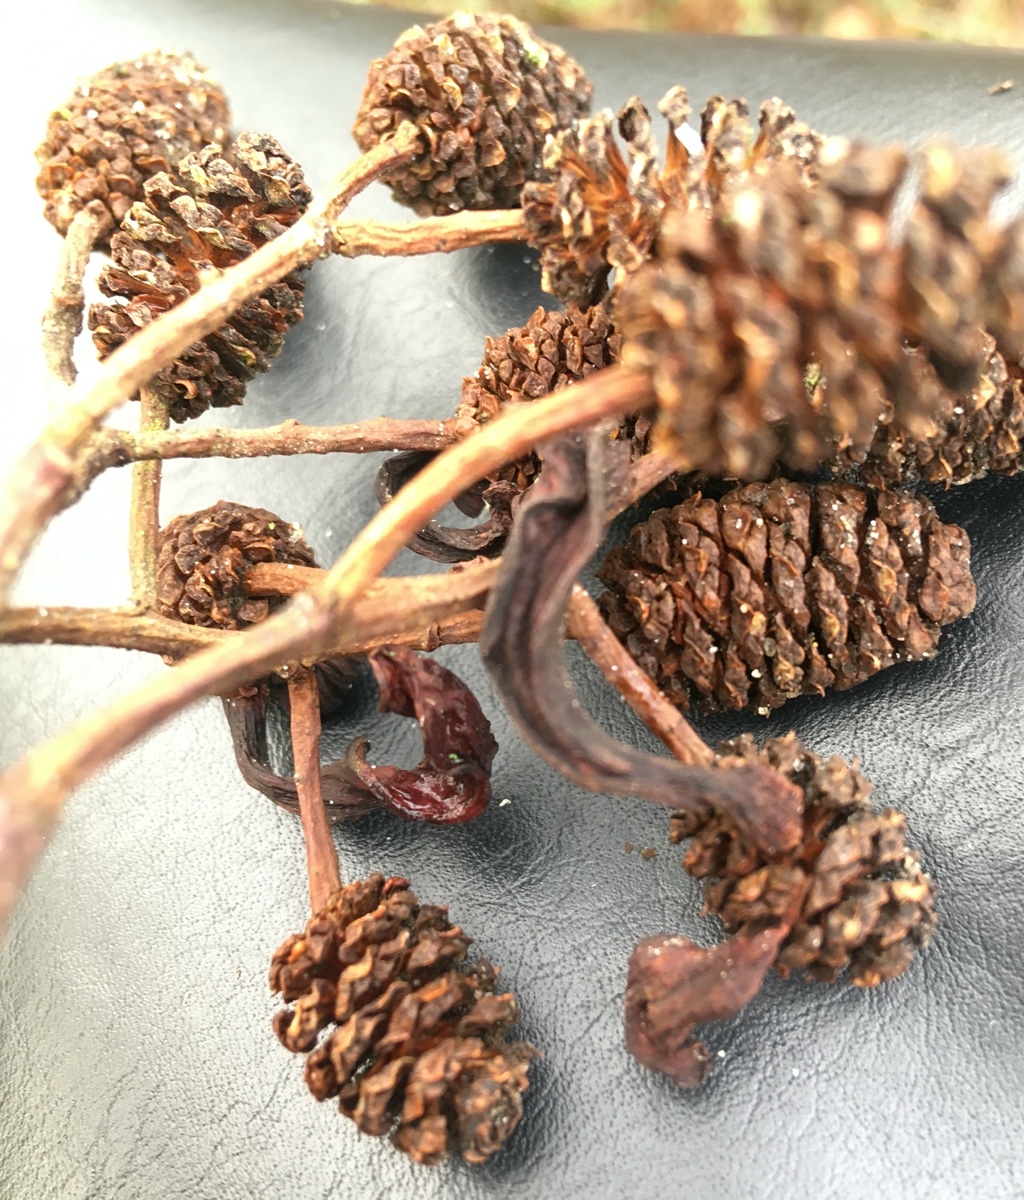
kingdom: Fungi
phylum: Ascomycota
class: Taphrinomycetes
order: Taphrinales
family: Taphrinaceae
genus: Taphrina
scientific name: Taphrina alni
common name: Alder tongue
